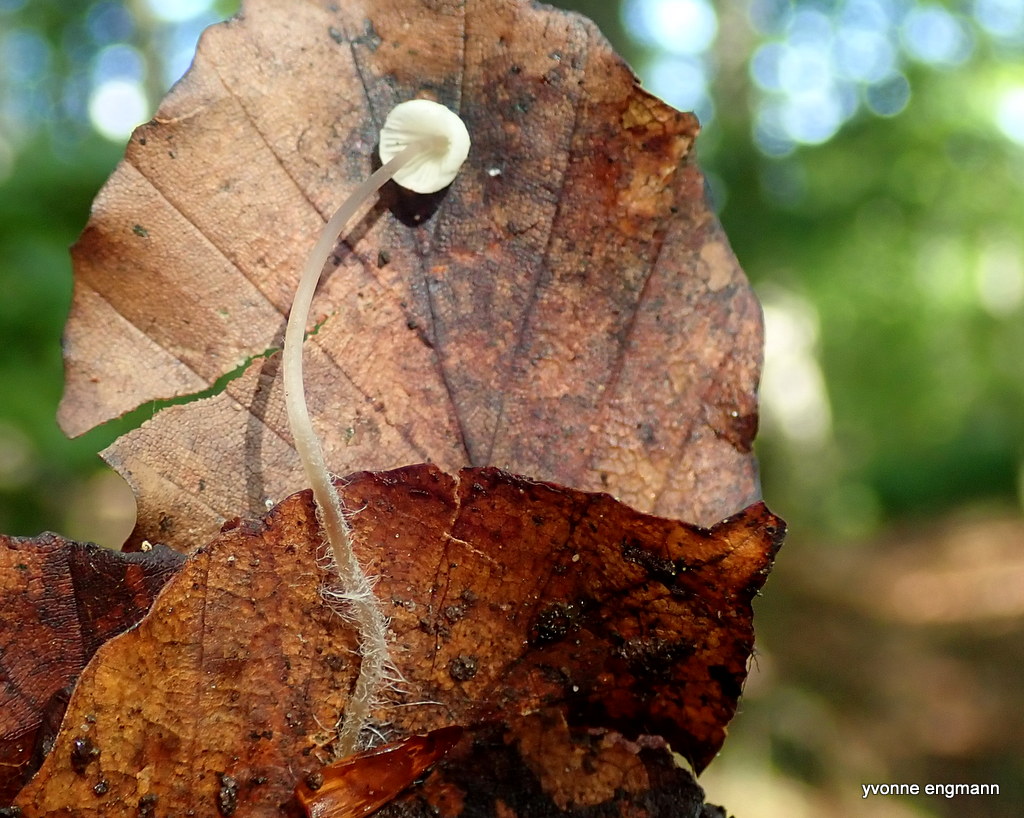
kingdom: Fungi
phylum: Basidiomycota
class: Agaricomycetes
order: Agaricales
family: Mycenaceae
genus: Mycena
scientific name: Mycena flavescens
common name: grågul huesvamp
